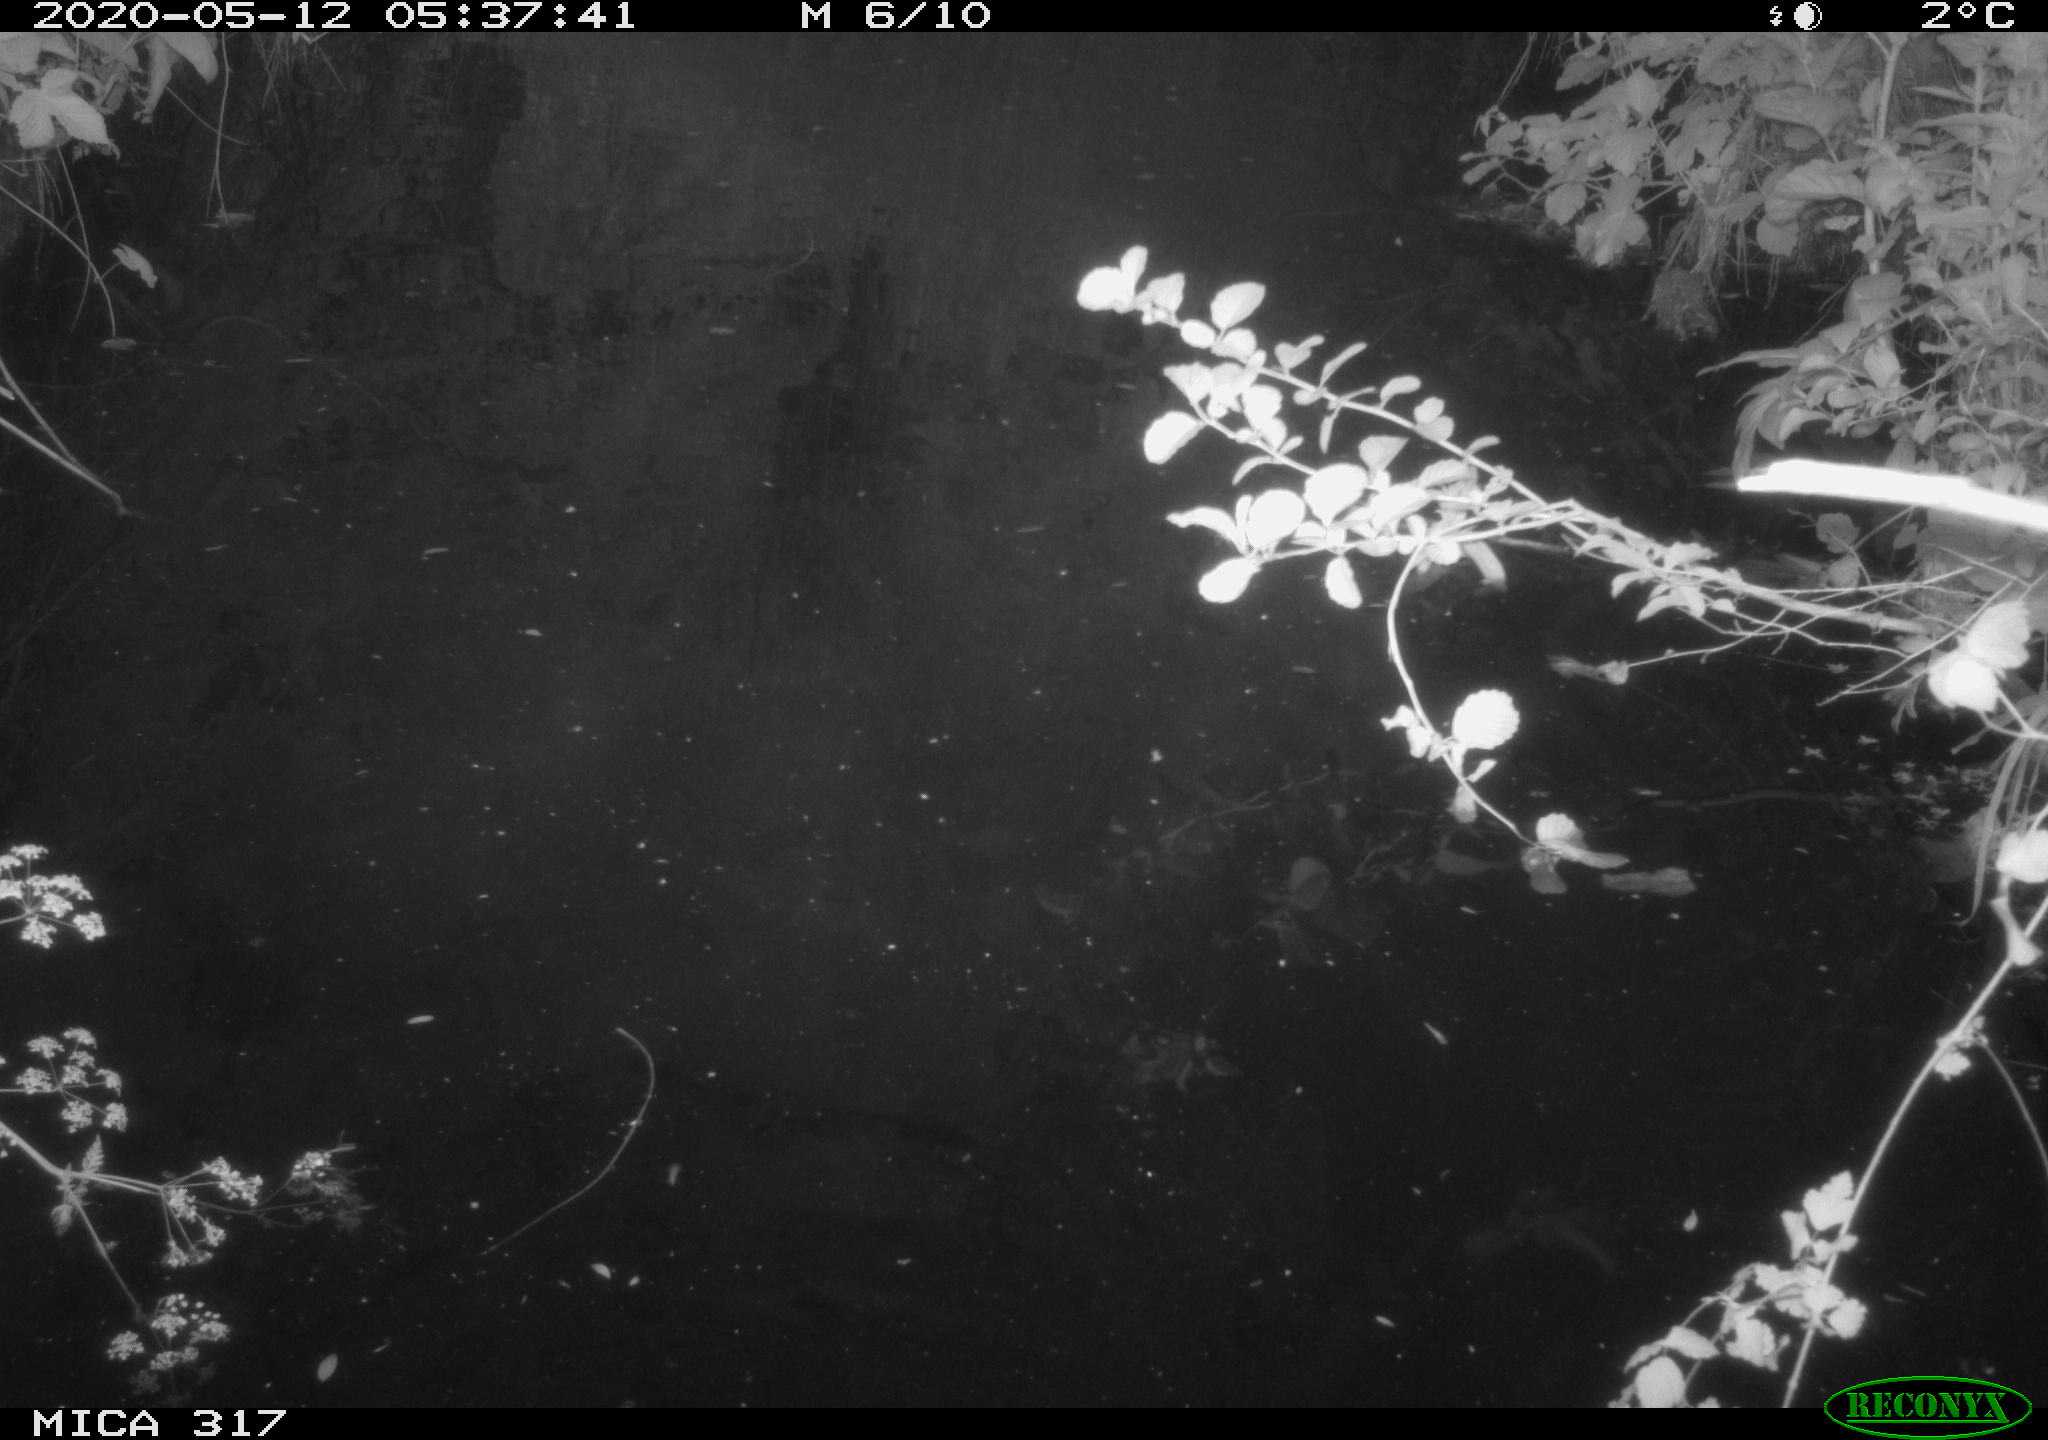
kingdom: Animalia
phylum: Chordata
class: Aves
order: Anseriformes
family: Anatidae
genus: Anas
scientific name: Anas platyrhynchos
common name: Mallard
